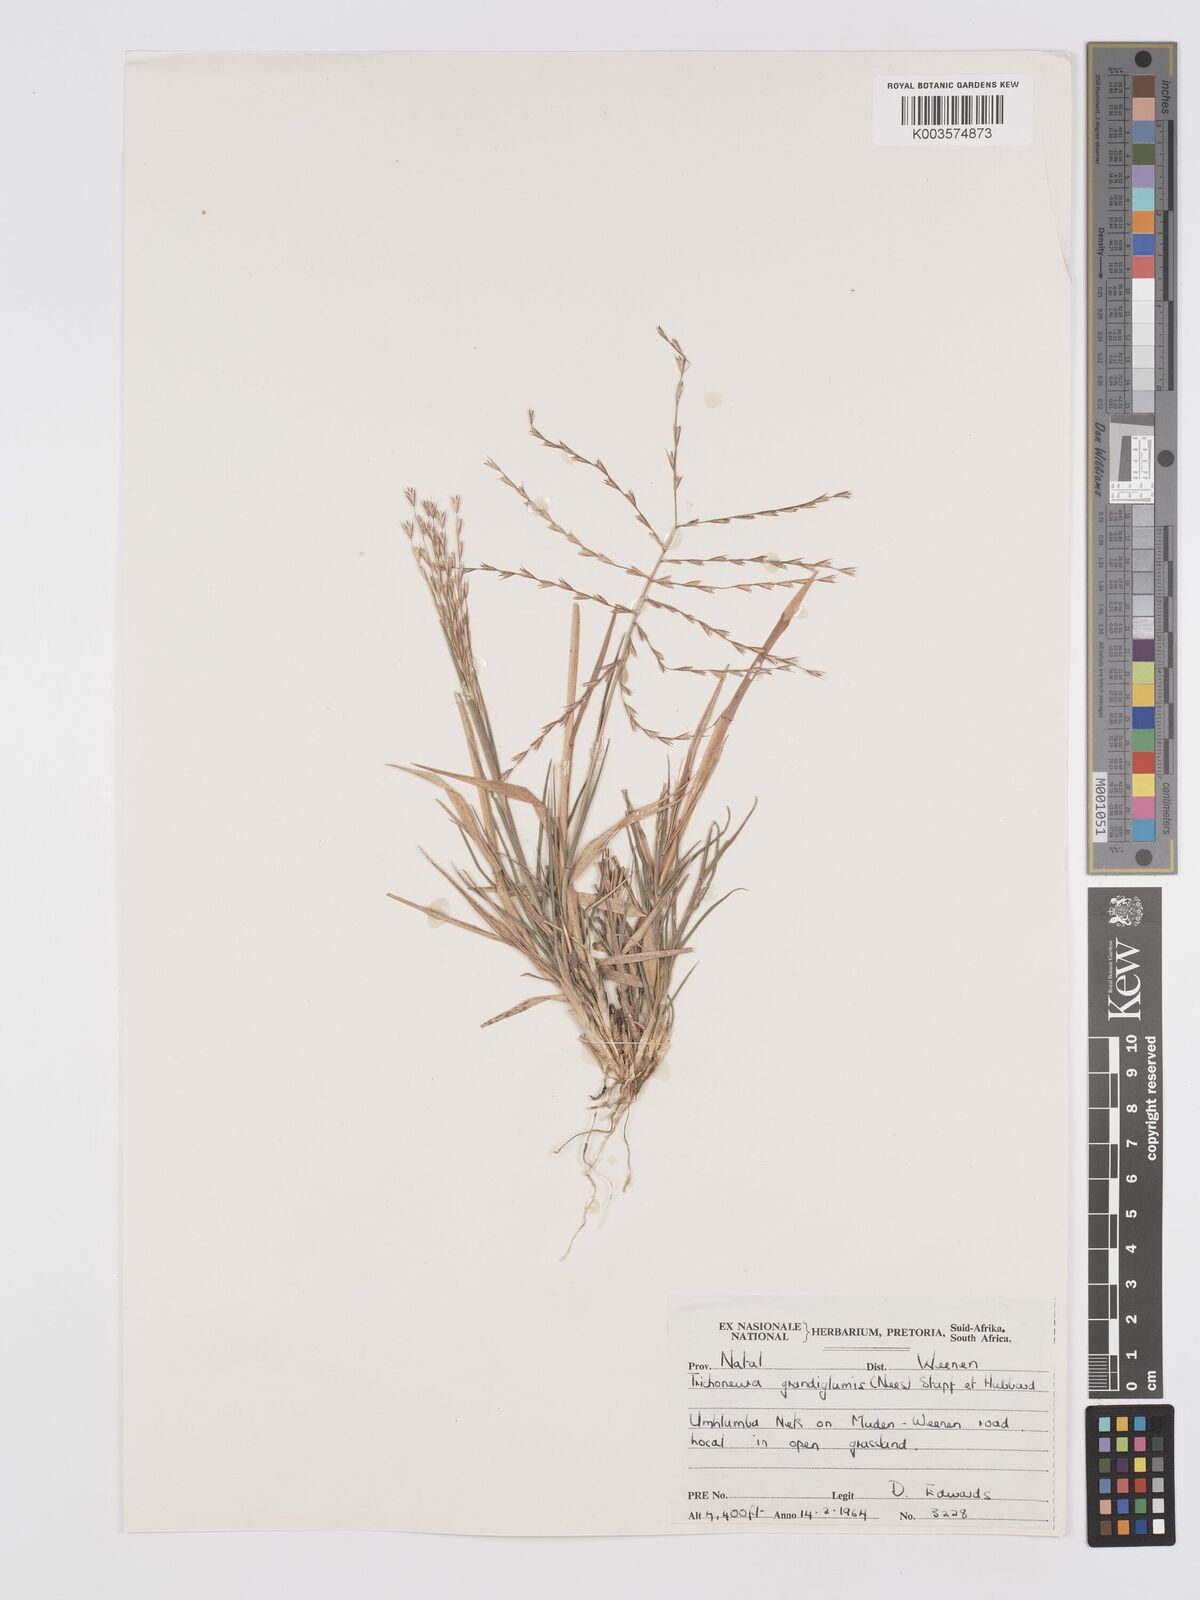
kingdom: Plantae
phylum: Tracheophyta
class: Liliopsida
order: Poales
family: Poaceae
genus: Trichoneura
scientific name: Trichoneura grandiglumis
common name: Rolling grass
